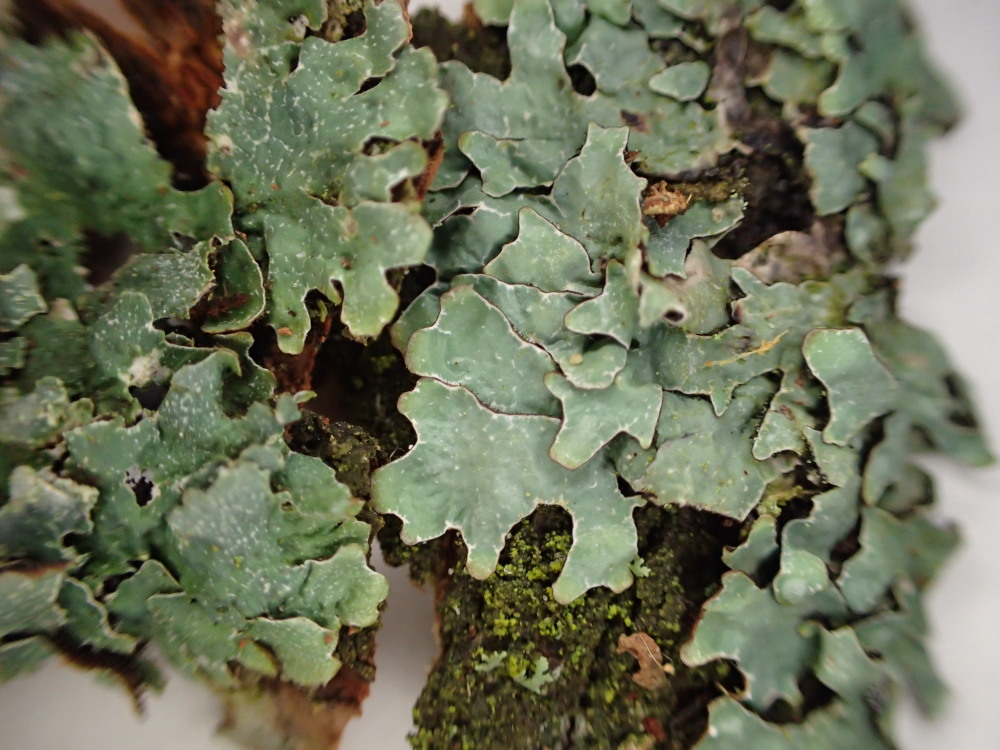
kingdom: Fungi
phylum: Ascomycota
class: Lecanoromycetes
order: Lecanorales
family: Parmeliaceae
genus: Parmelia
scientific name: Parmelia sulcata
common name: rynket skållav
